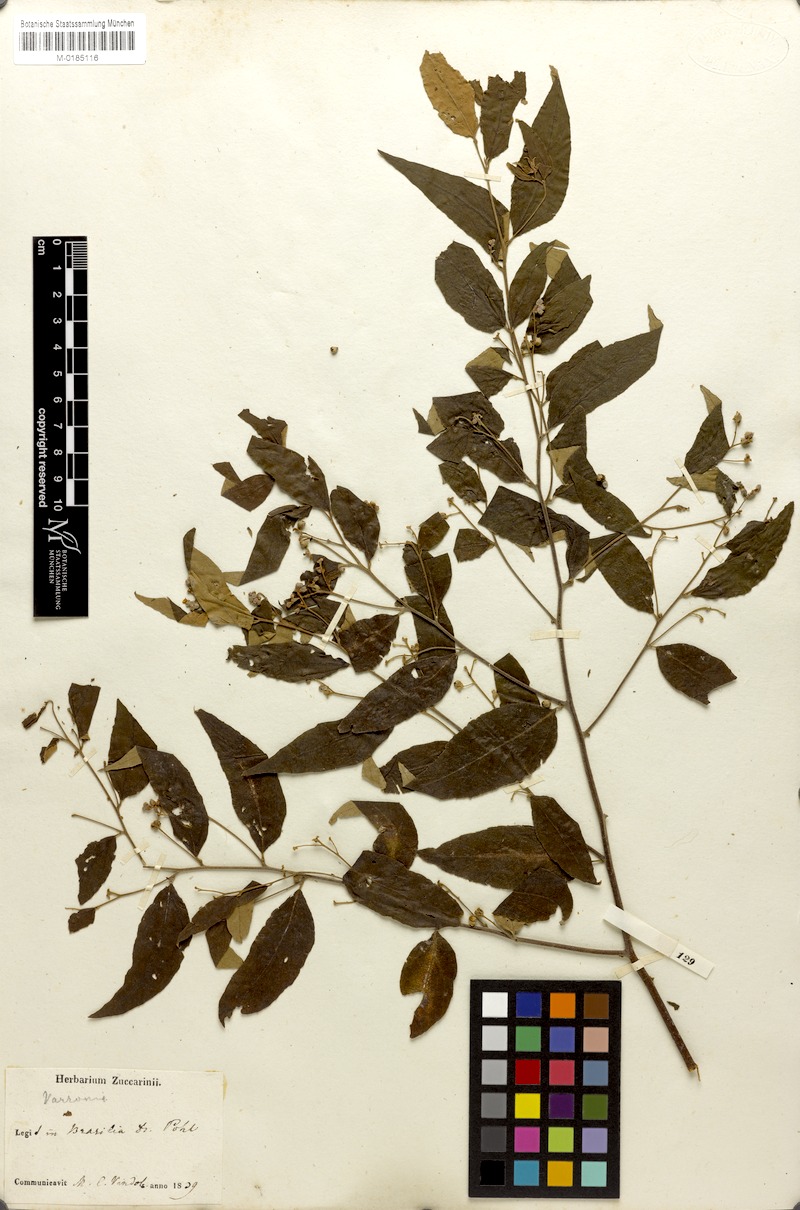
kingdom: Plantae
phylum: Tracheophyta
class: Magnoliopsida
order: Boraginales
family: Cordiaceae
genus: Varronia
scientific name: Varronia polycephala
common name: Black-sage
